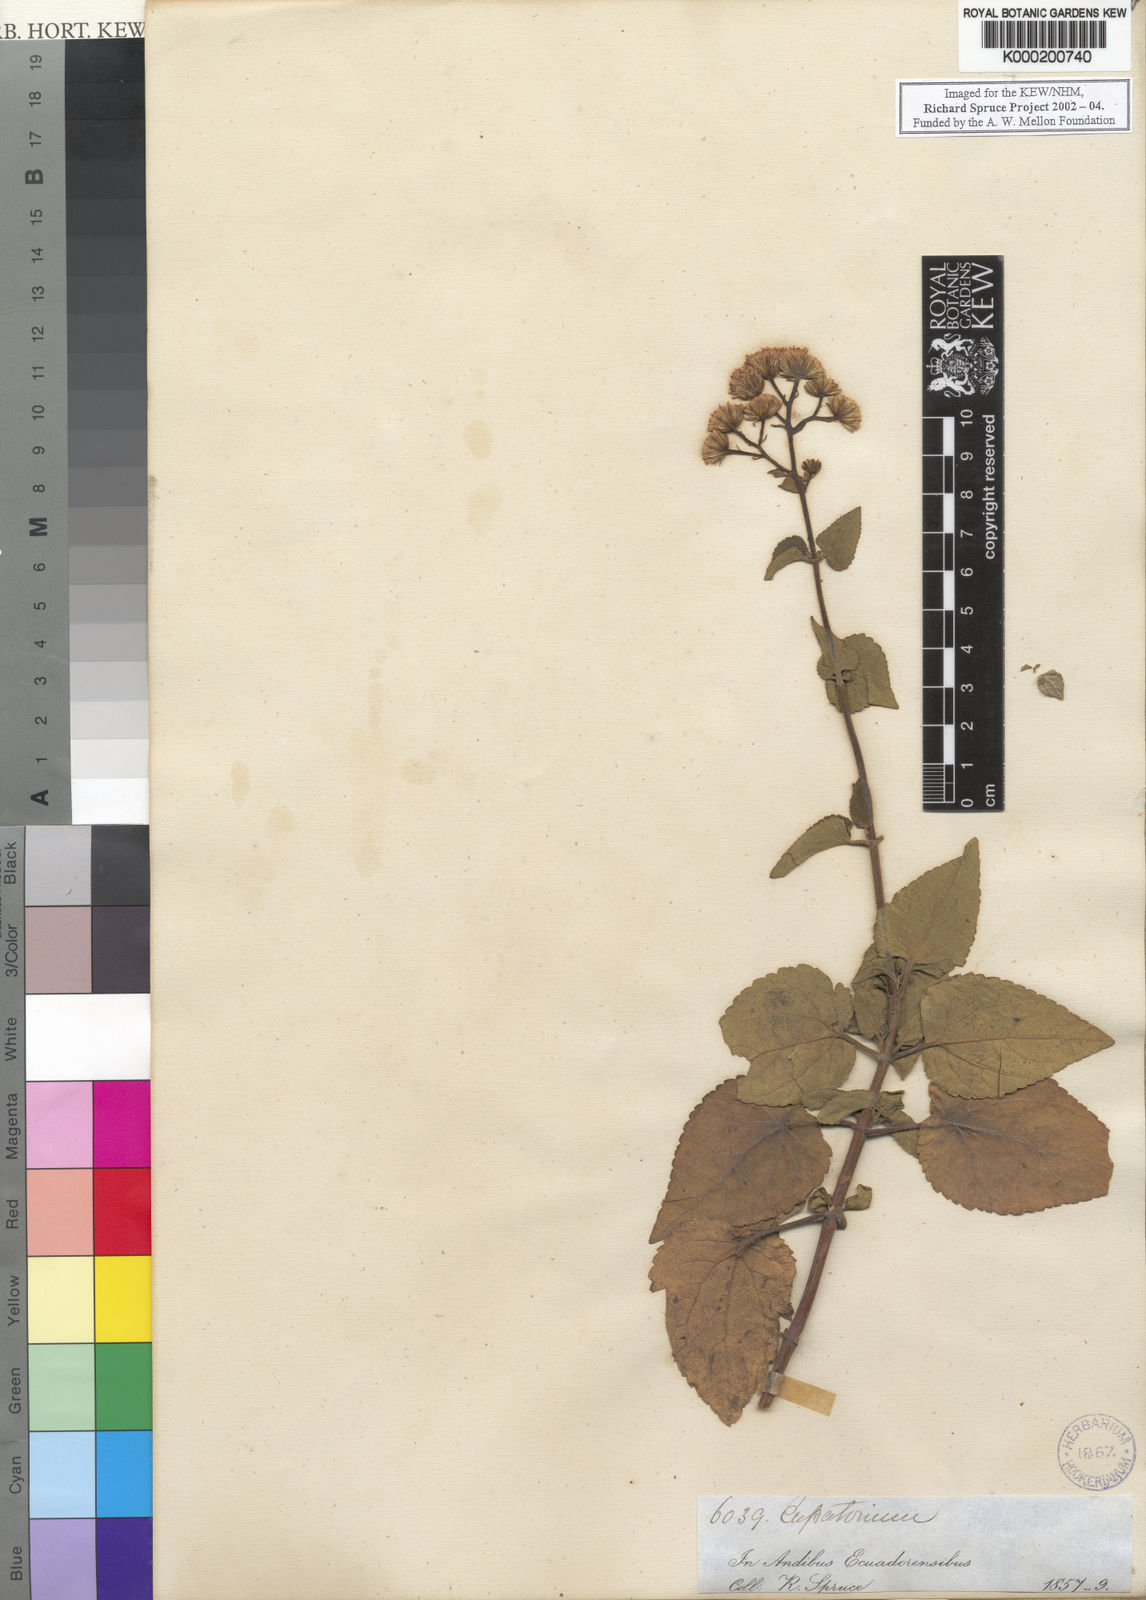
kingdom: Plantae
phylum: Tracheophyta
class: Magnoliopsida
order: Asterales
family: Asteraceae
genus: Eupatorium
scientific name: Eupatorium
